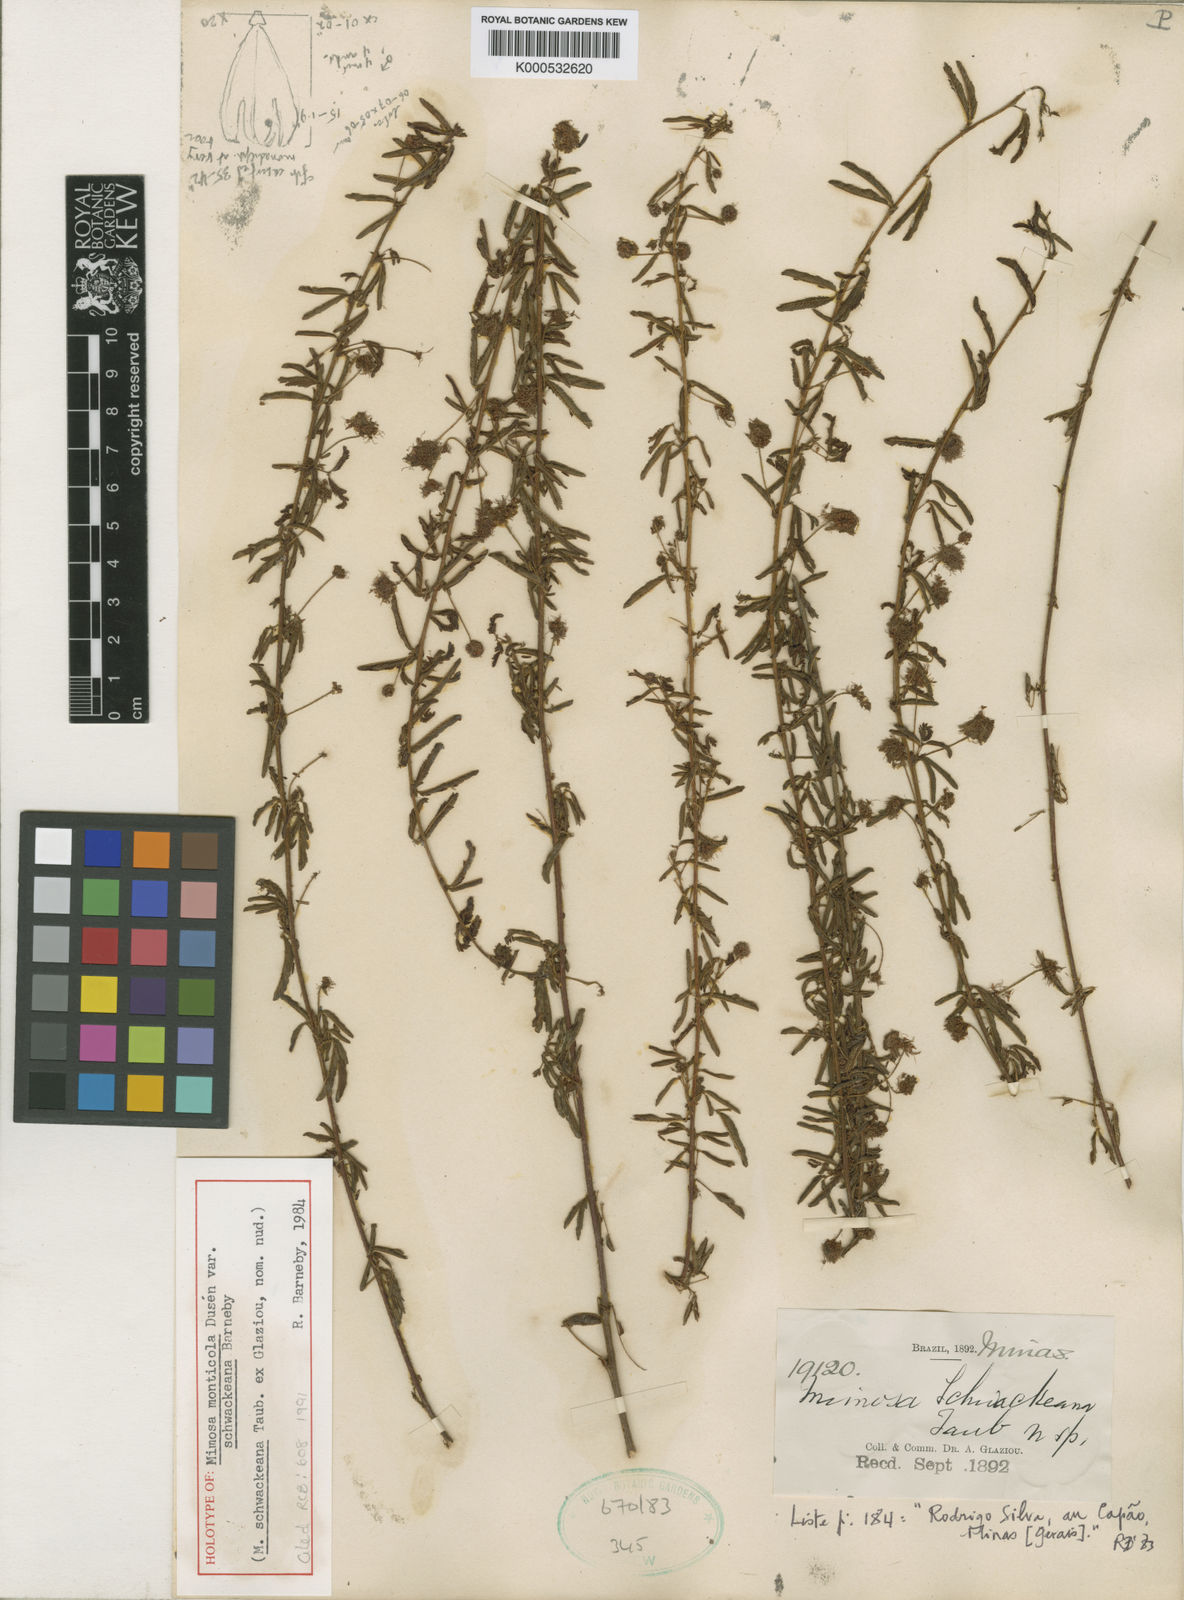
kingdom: Plantae
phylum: Tracheophyta
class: Magnoliopsida
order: Fabales
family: Fabaceae
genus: Mimosa
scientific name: Mimosa monticola
